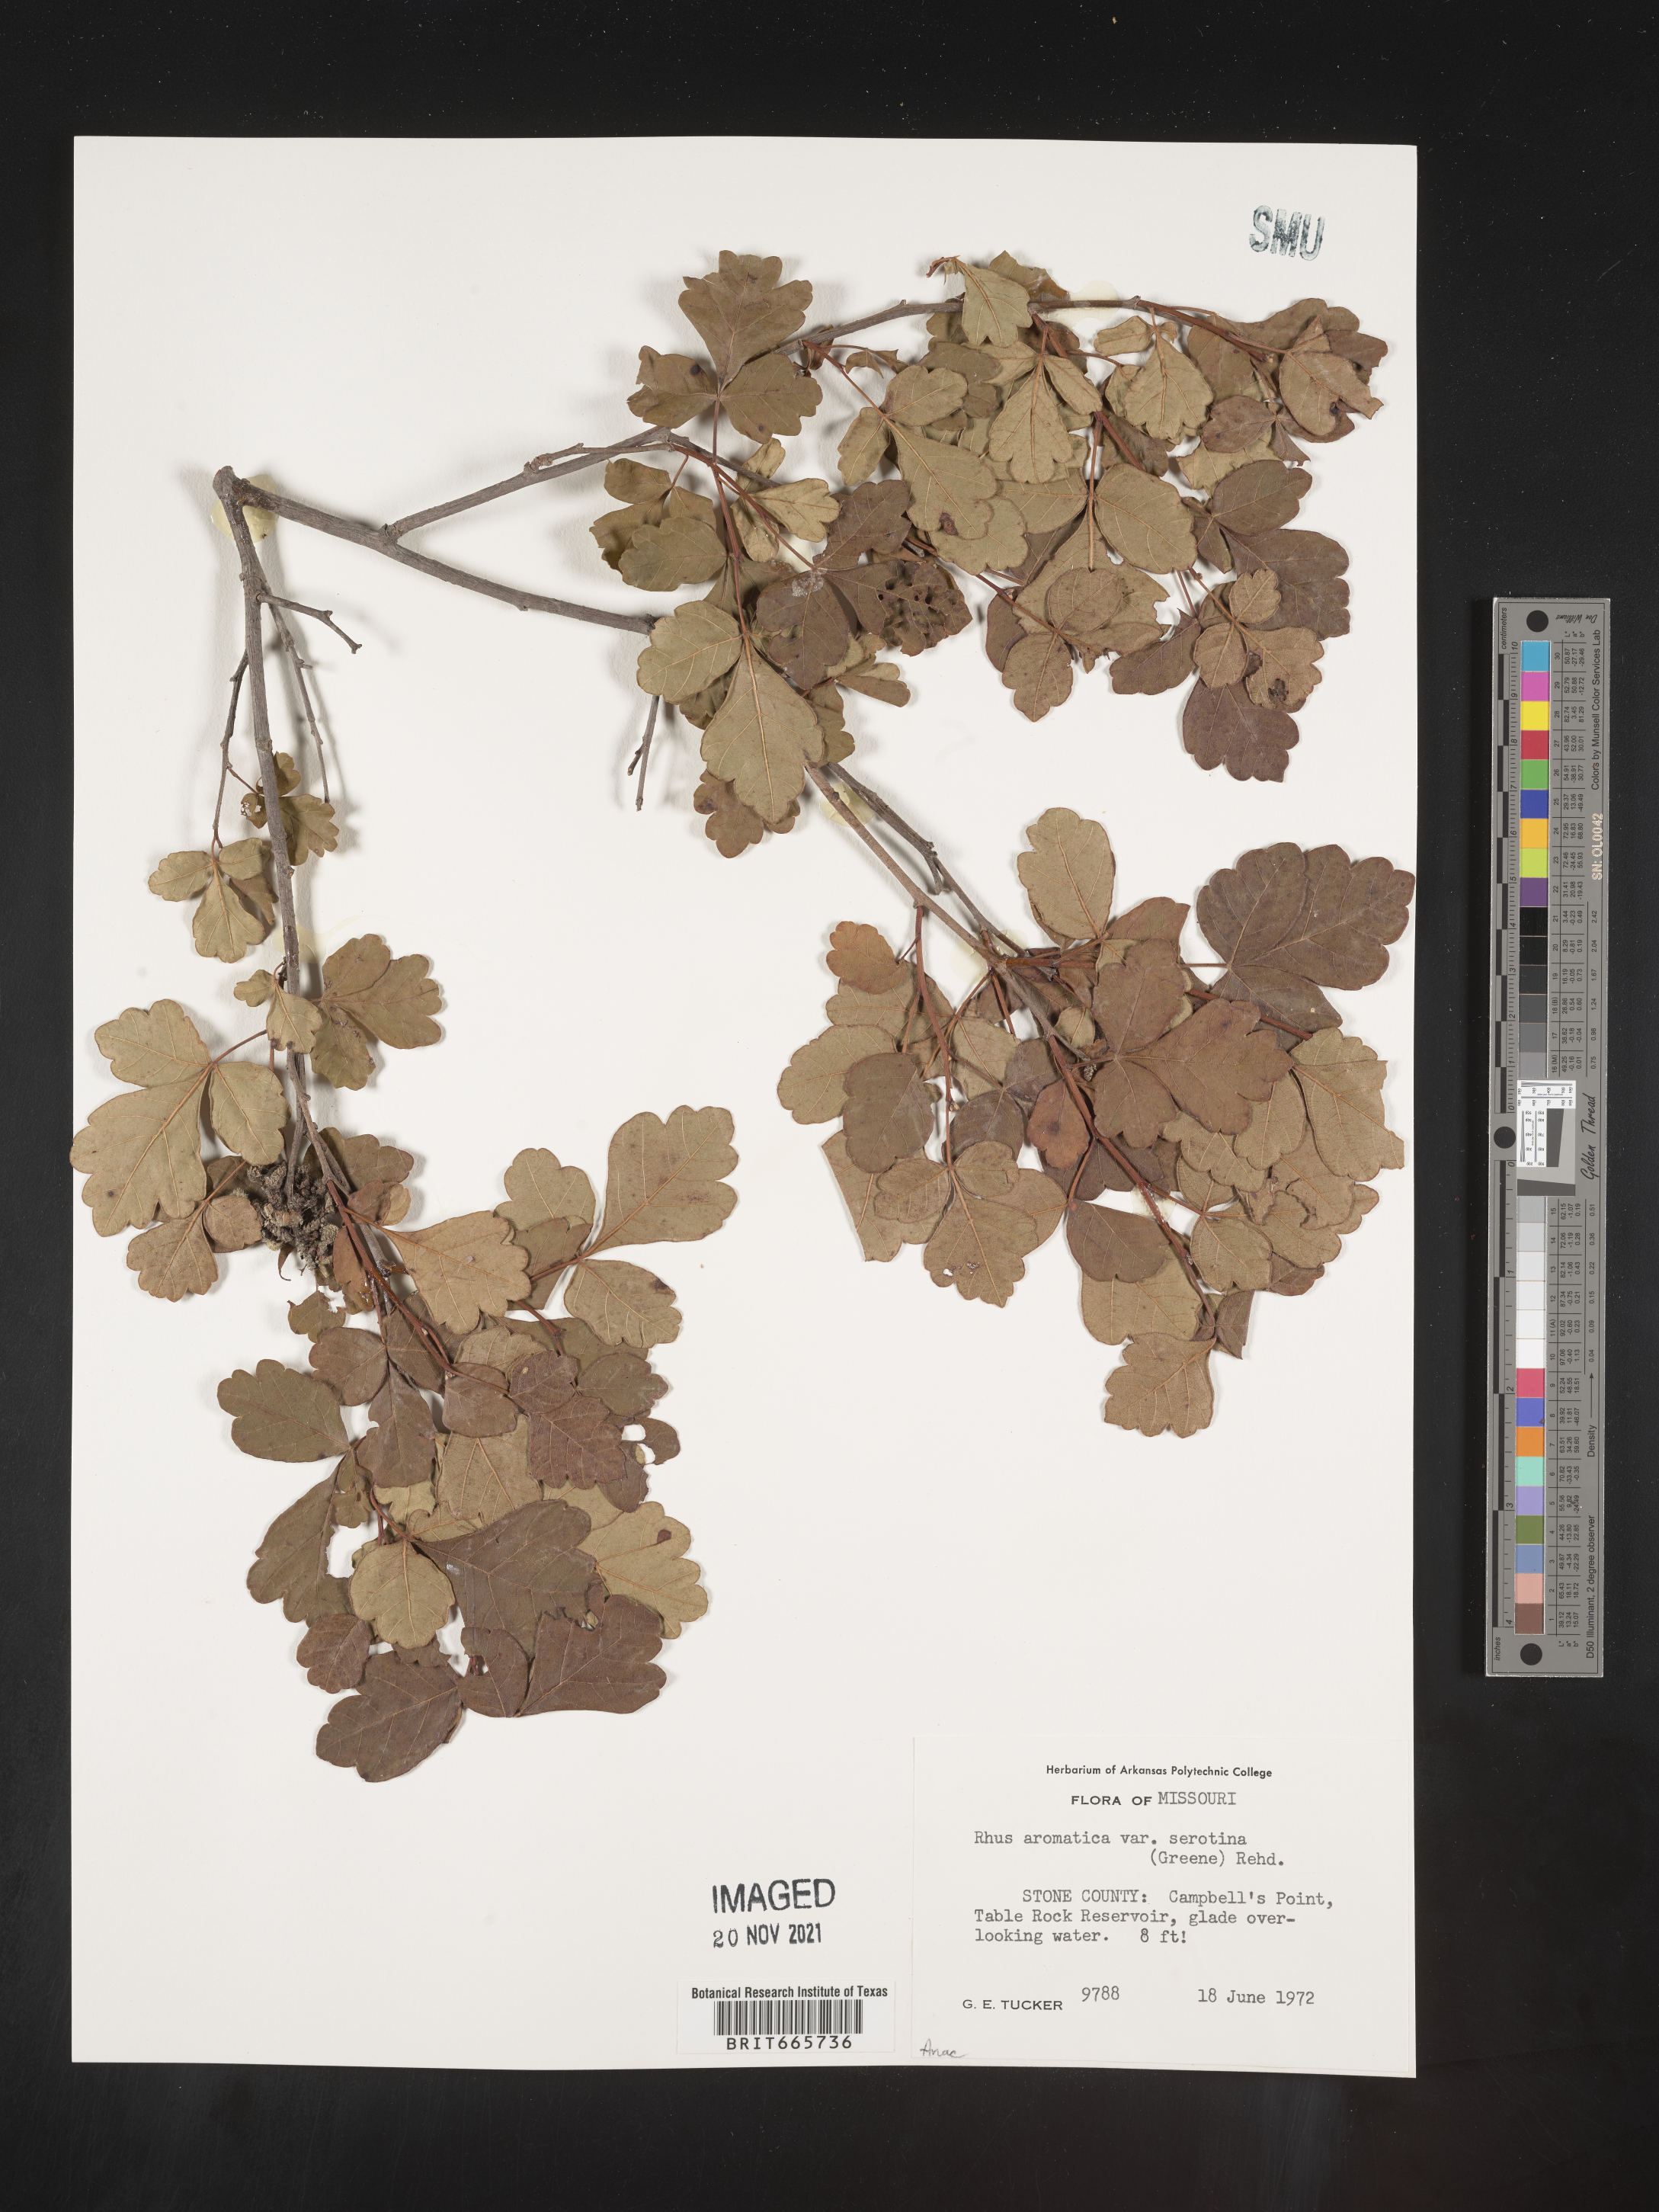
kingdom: Plantae
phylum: Tracheophyta
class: Magnoliopsida
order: Sapindales
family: Anacardiaceae
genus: Rhus
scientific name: Rhus aromatica
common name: Aromatic sumac
